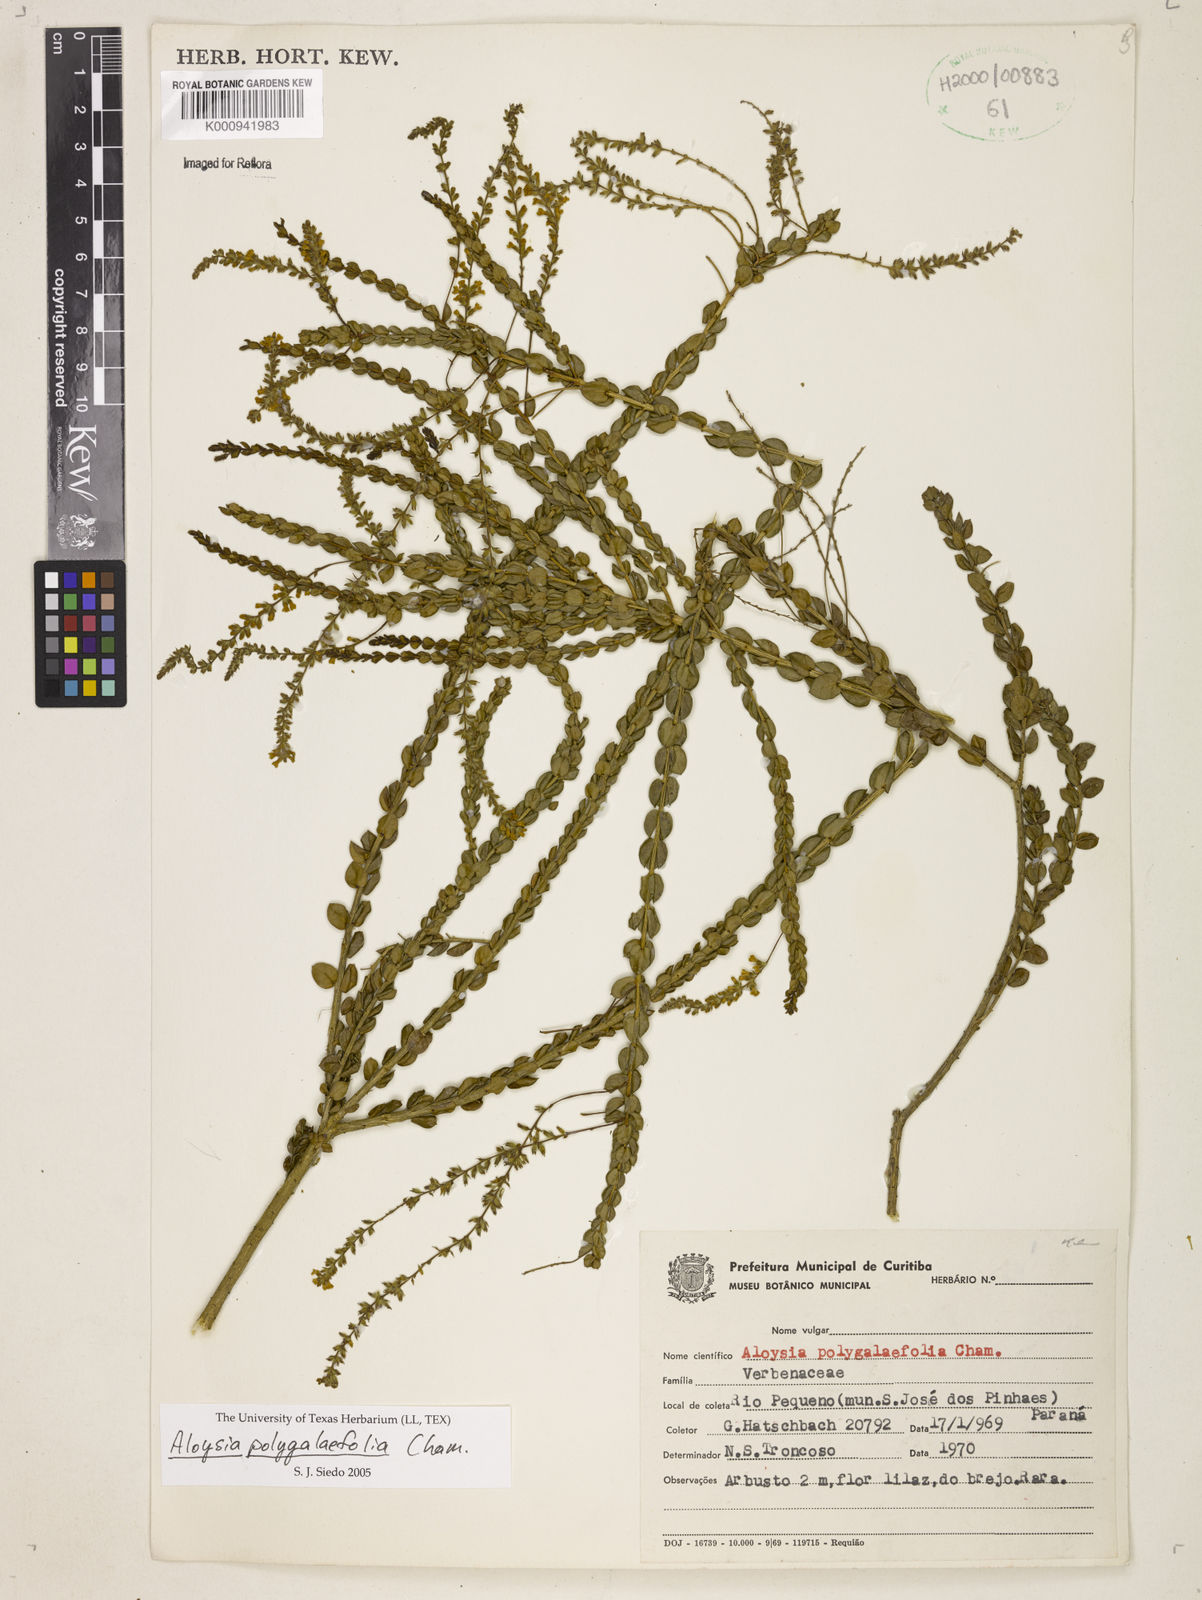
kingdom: Plantae
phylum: Tracheophyta
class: Magnoliopsida
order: Lamiales
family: Verbenaceae
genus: Aloysia
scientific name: Aloysia polygalifolia
